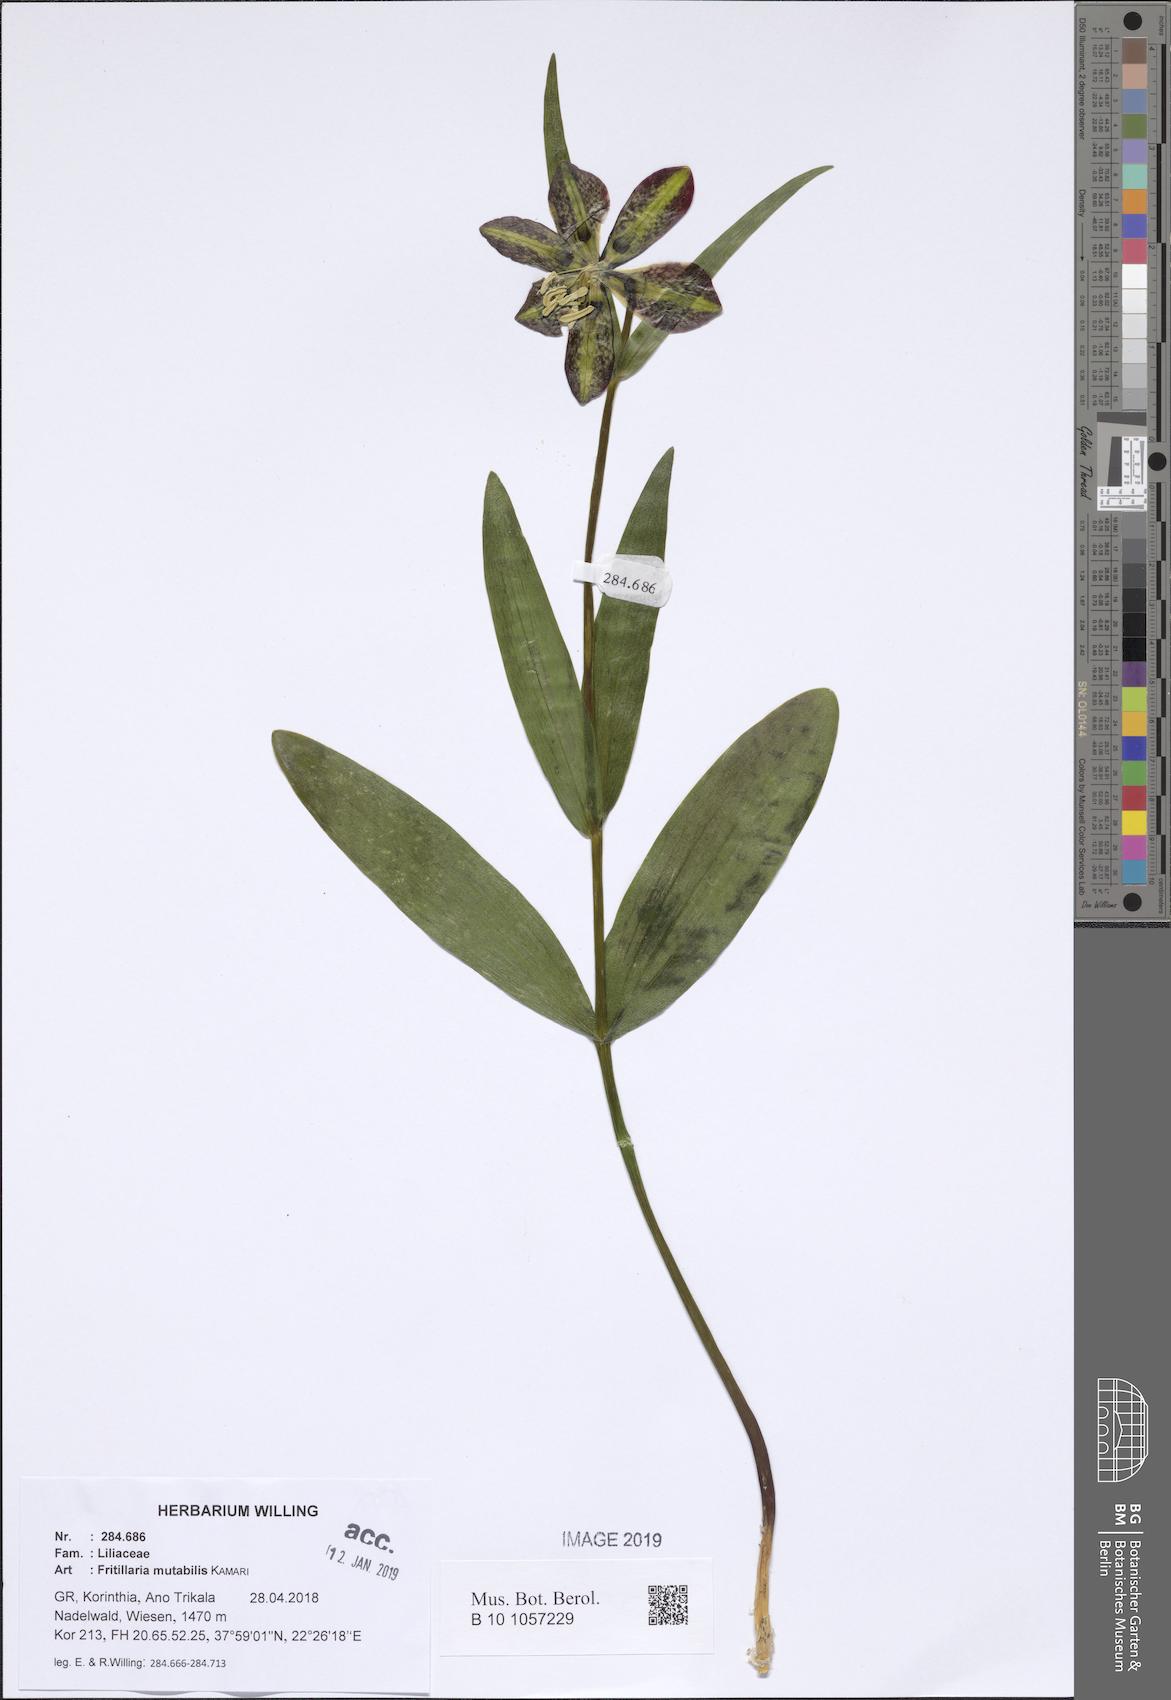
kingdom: Plantae
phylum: Tracheophyta
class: Liliopsida
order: Liliales
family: Liliaceae
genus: Fritillaria
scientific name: Fritillaria mutabilis
